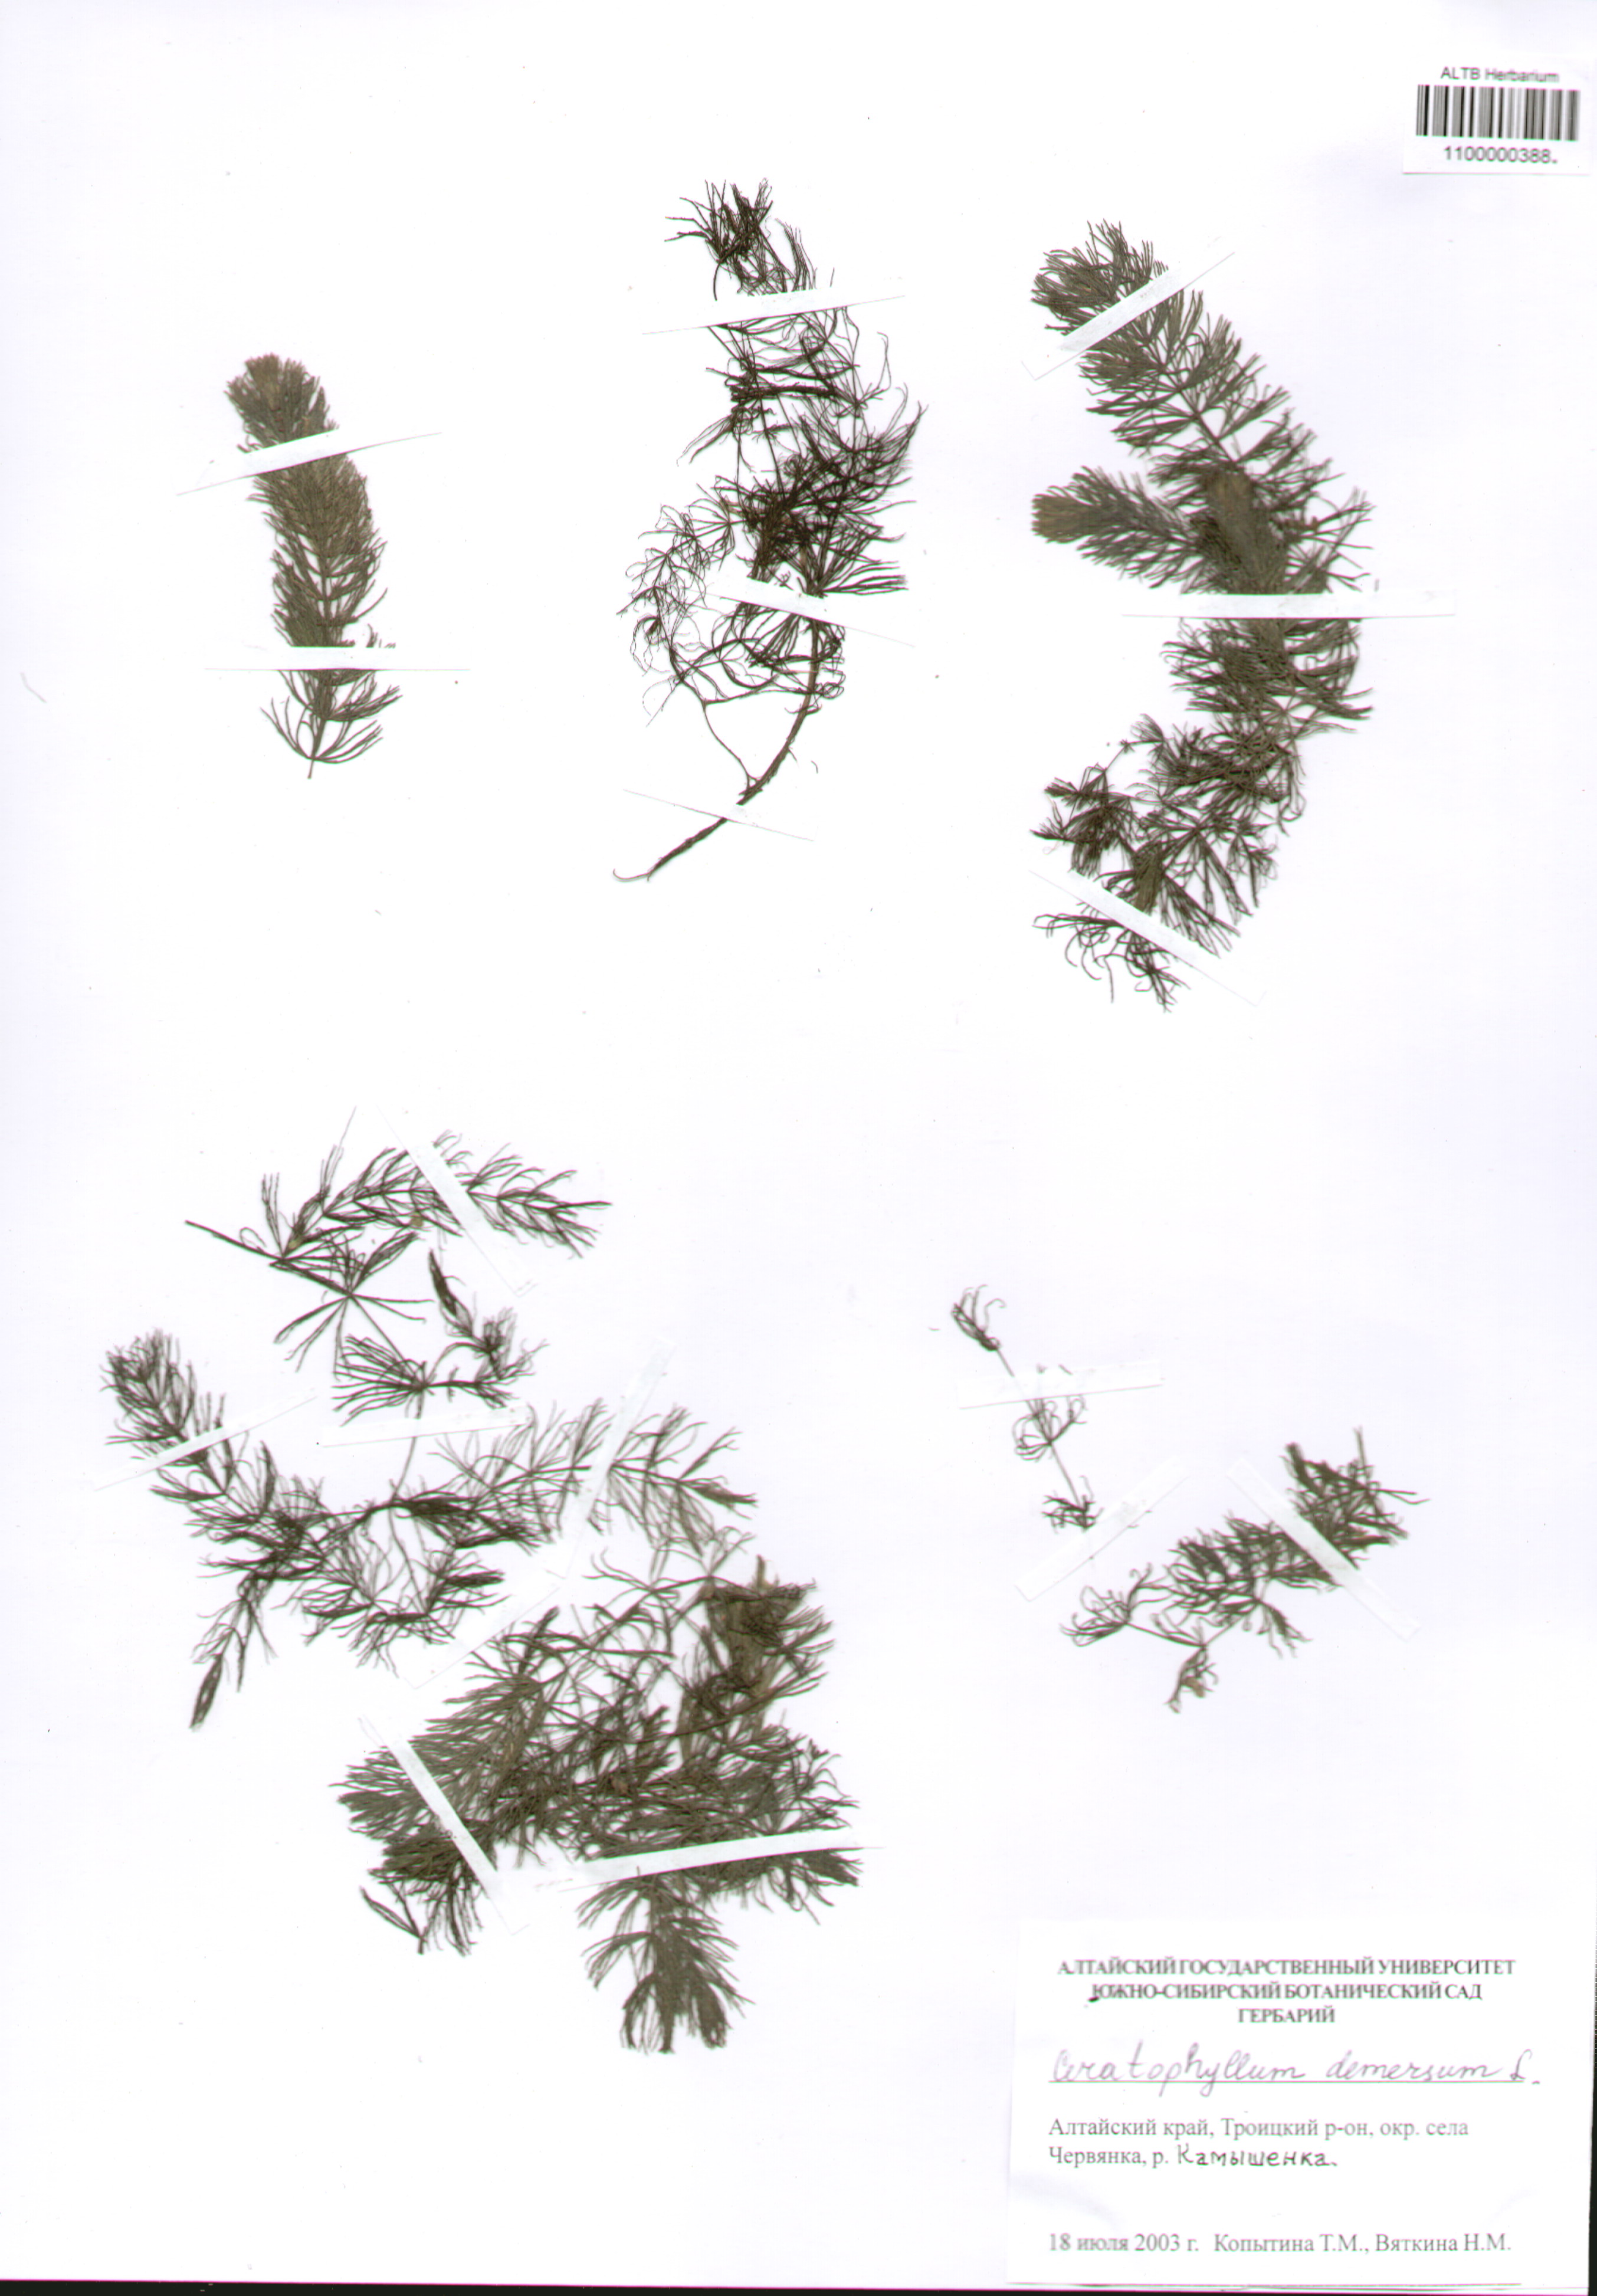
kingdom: Plantae
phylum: Tracheophyta
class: Magnoliopsida
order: Ceratophyllales
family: Ceratophyllaceae
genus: Ceratophyllum
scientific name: Ceratophyllum demersum
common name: Rigid hornwort
